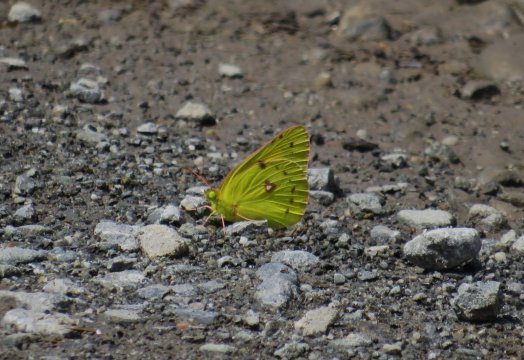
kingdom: Animalia
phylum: Arthropoda
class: Insecta
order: Lepidoptera
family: Pieridae
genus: Colias
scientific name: Colias eurytheme
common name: Orange Sulphur
